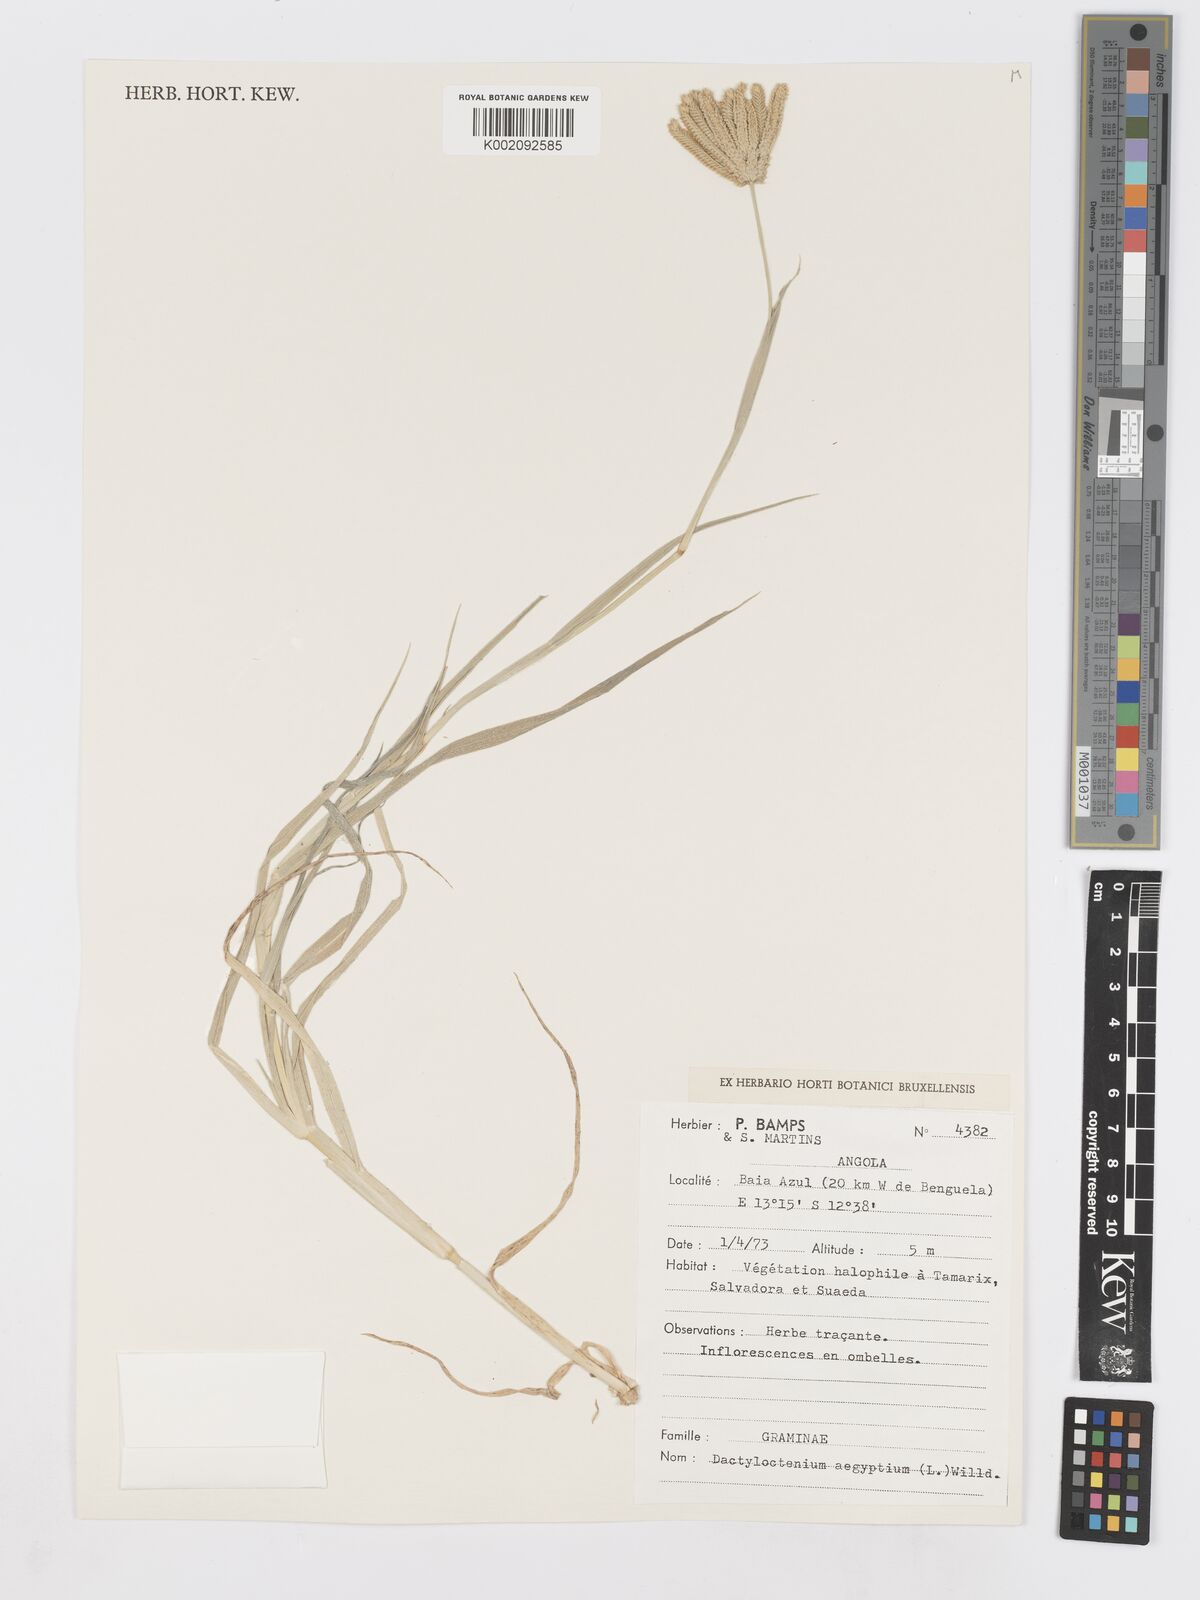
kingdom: Plantae
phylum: Tracheophyta
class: Liliopsida
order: Poales
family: Poaceae
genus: Dactyloctenium
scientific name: Dactyloctenium aegyptium
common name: Egyptian grass
